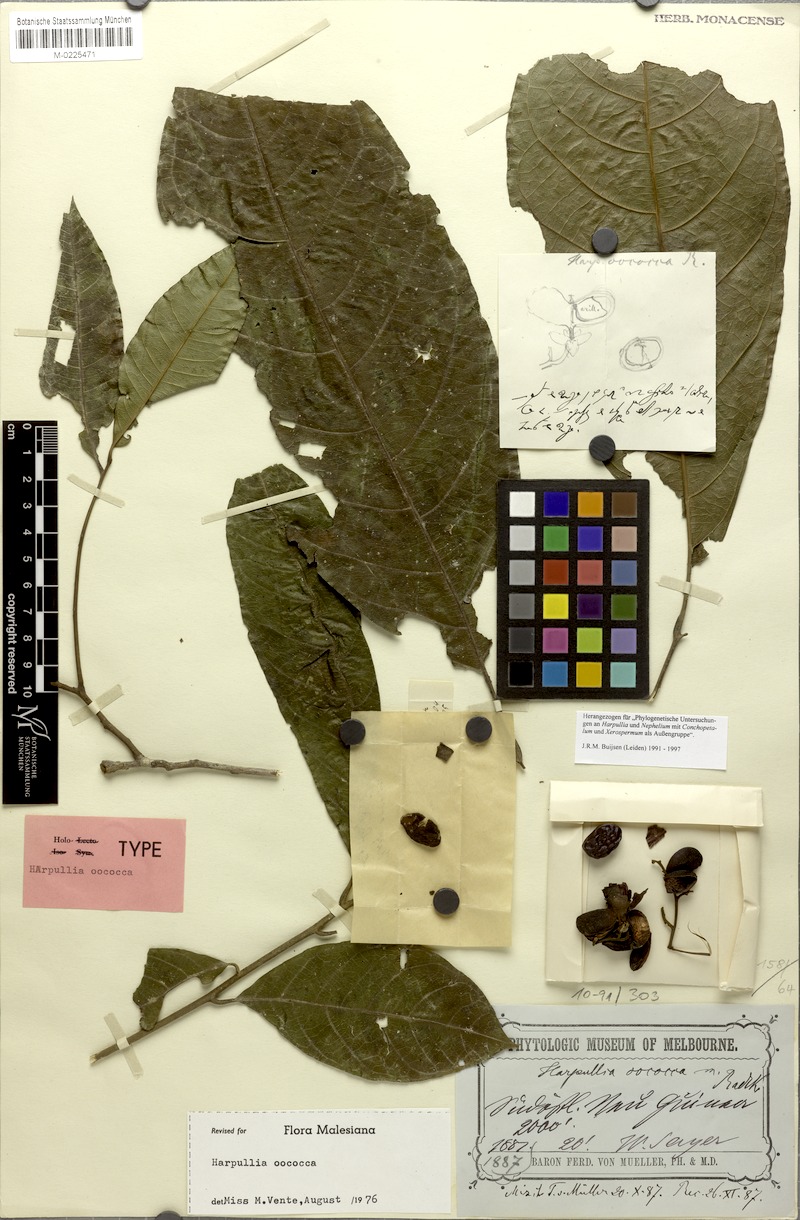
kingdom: Plantae
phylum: Tracheophyta
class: Magnoliopsida
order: Sapindales
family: Sapindaceae
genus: Harpullia
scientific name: Harpullia oococca
